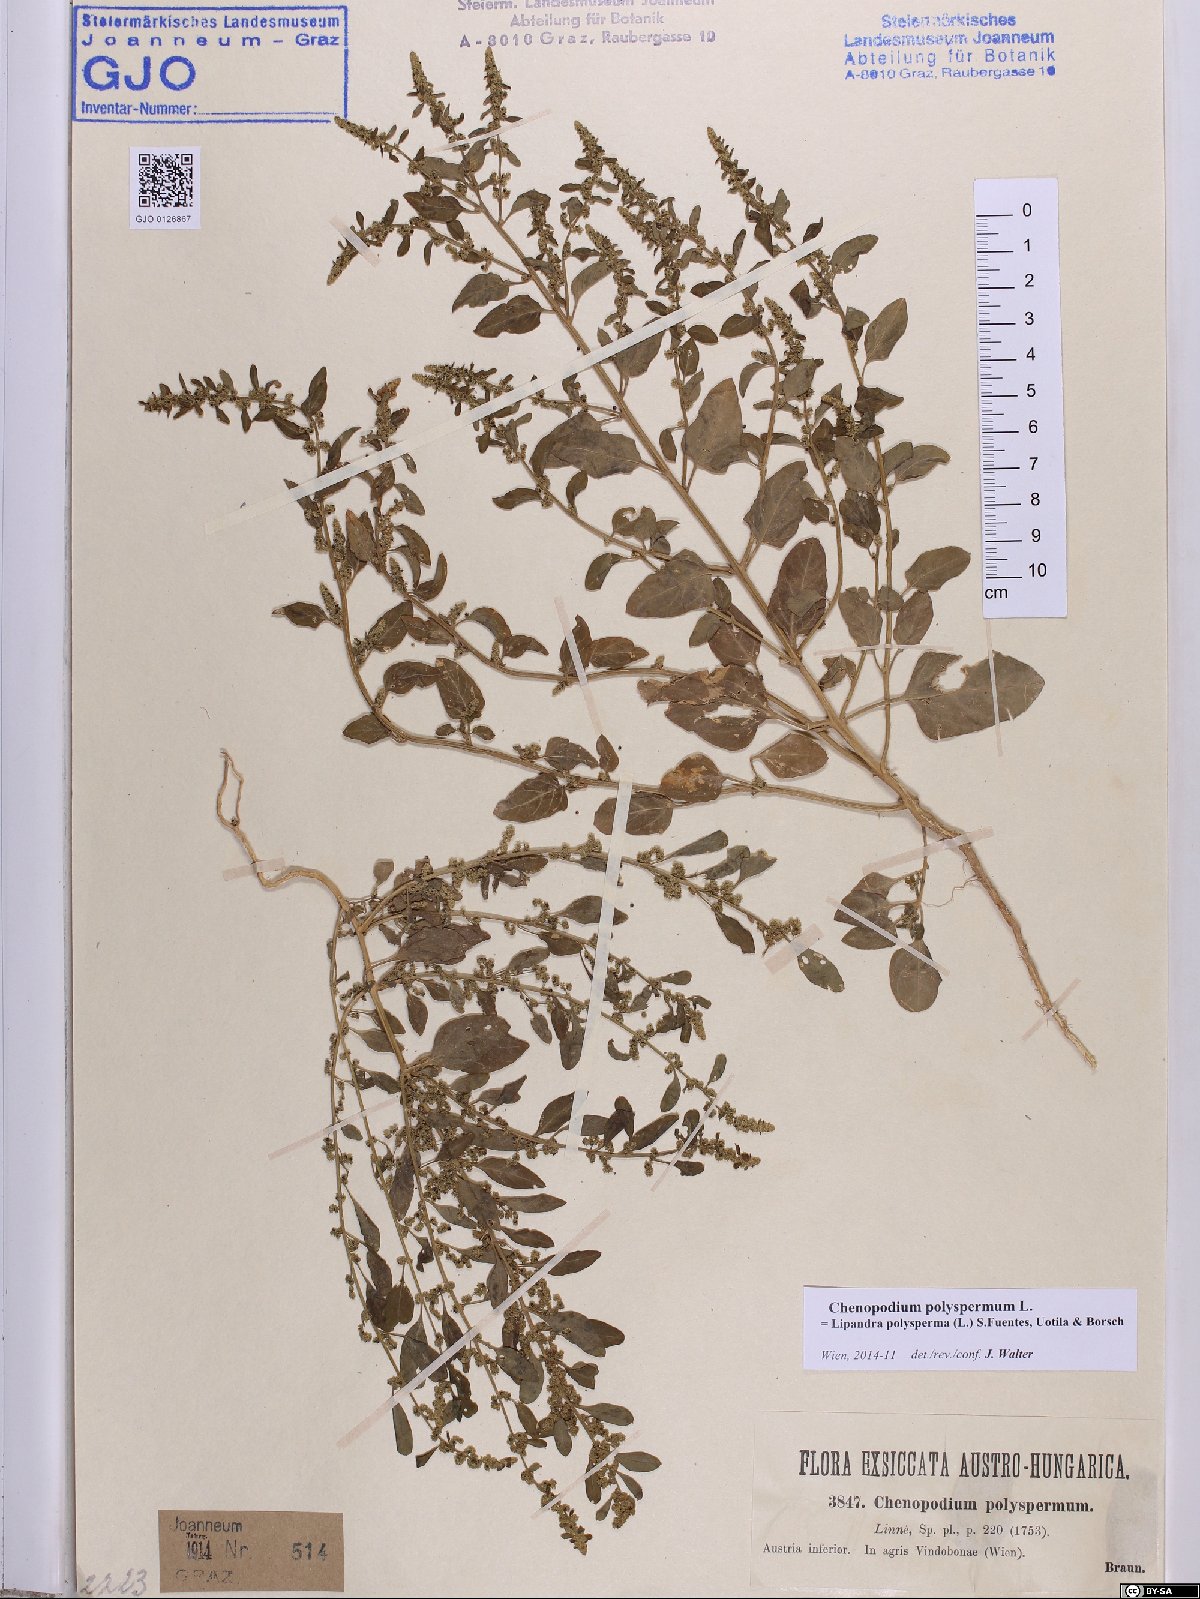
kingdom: Plantae
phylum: Tracheophyta
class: Magnoliopsida
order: Caryophyllales
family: Amaranthaceae
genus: Lipandra
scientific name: Lipandra polysperma
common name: Many-seed goosefoot
